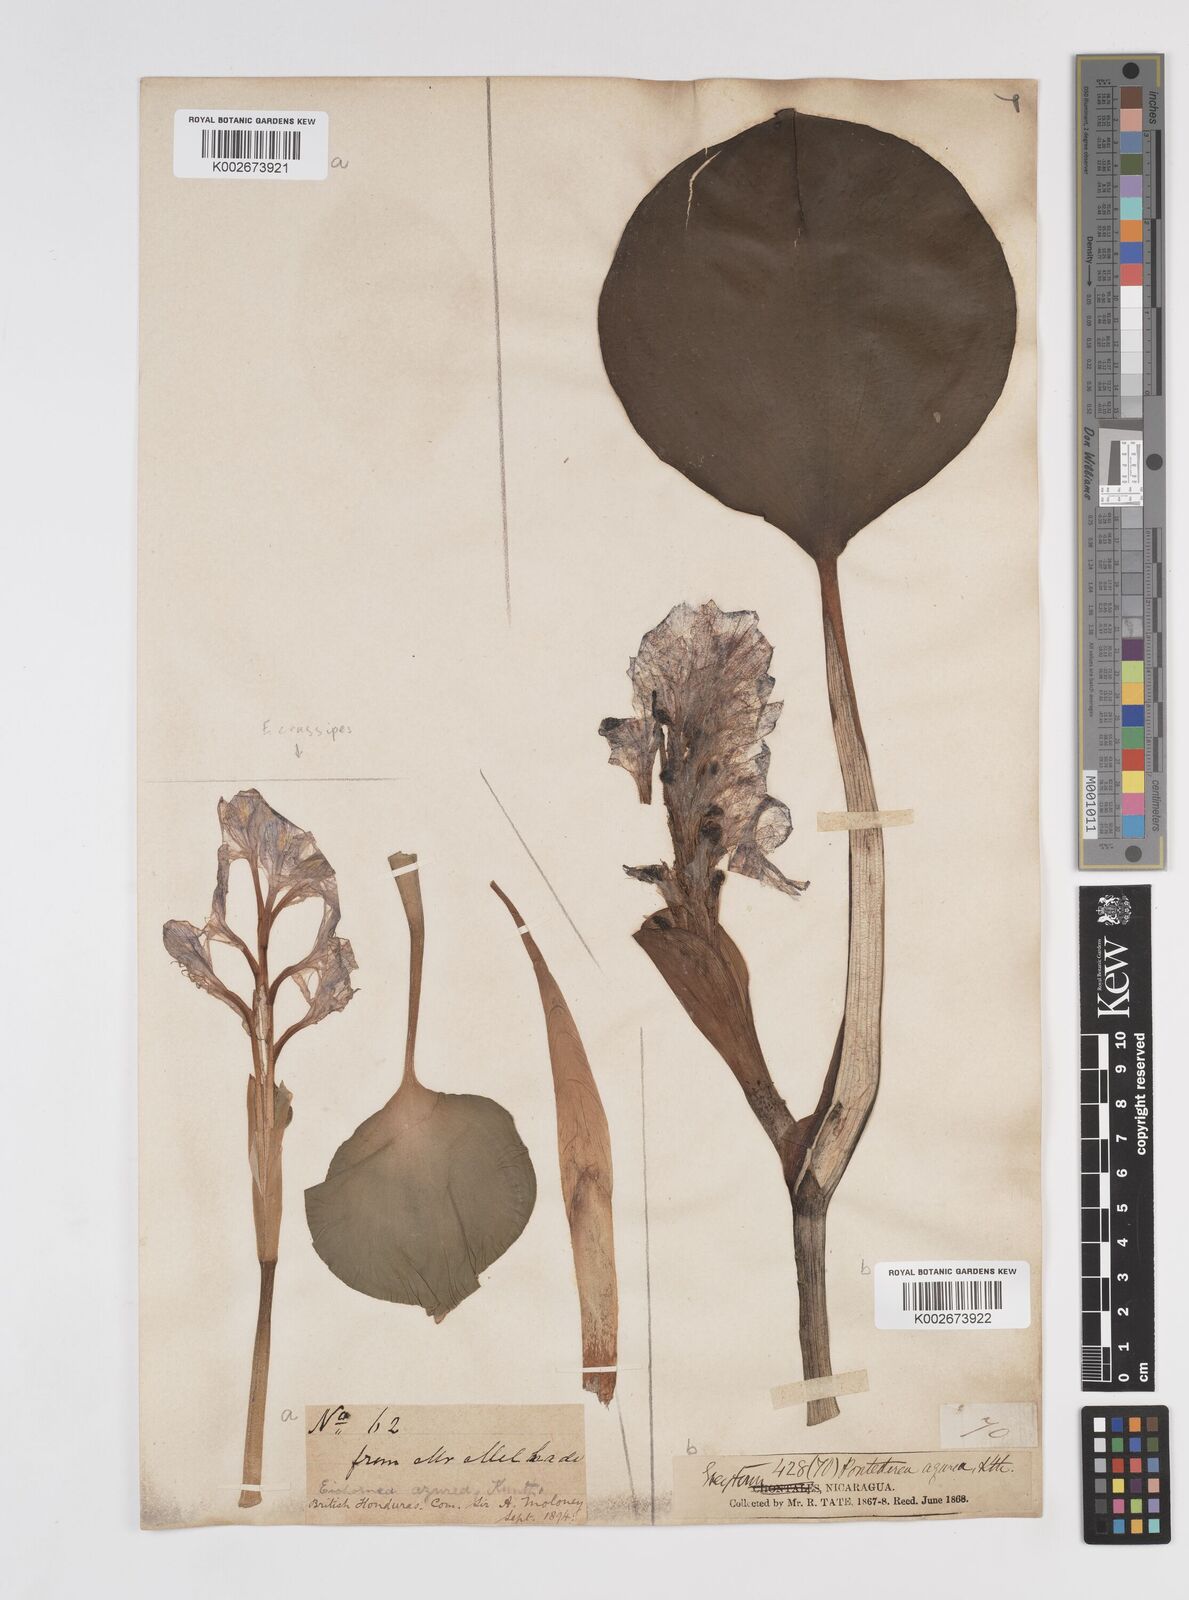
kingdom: Plantae
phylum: Tracheophyta
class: Liliopsida
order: Commelinales
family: Pontederiaceae
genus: Pontederia
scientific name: Pontederia azurea
